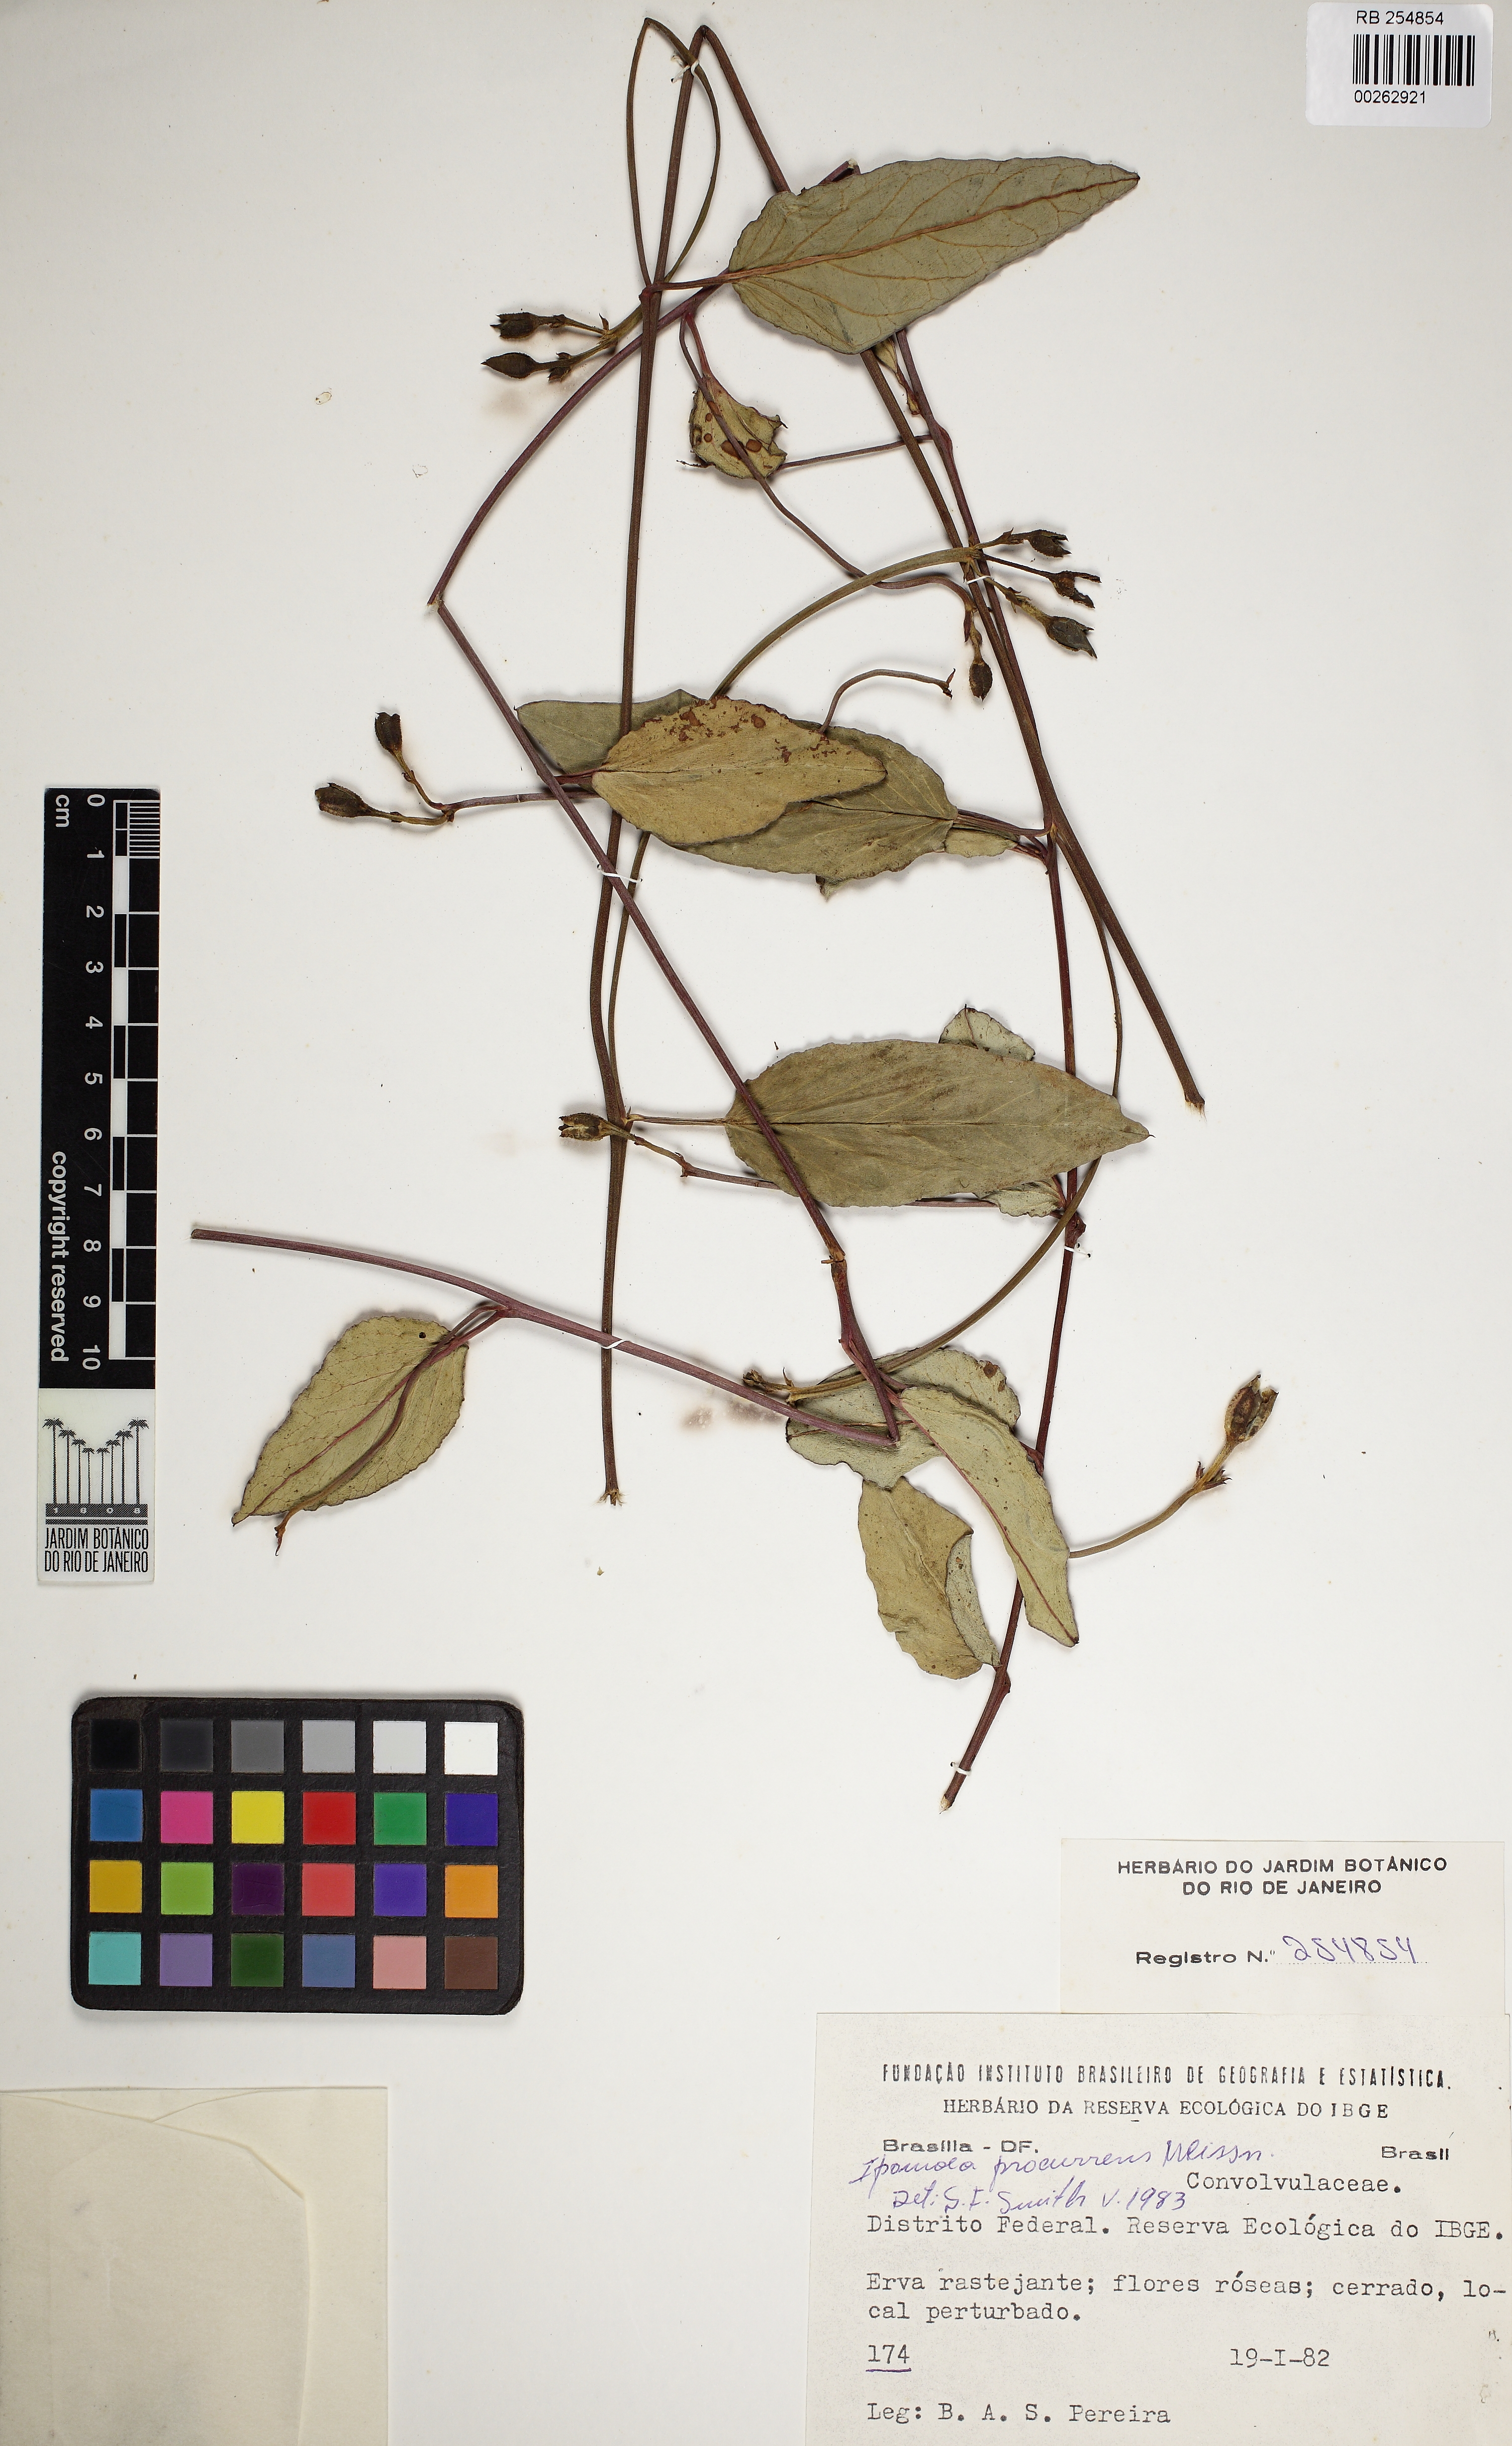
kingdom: Plantae
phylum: Tracheophyta
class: Magnoliopsida
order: Solanales
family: Convolvulaceae
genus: Ipomoea
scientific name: Ipomoea procurrens
